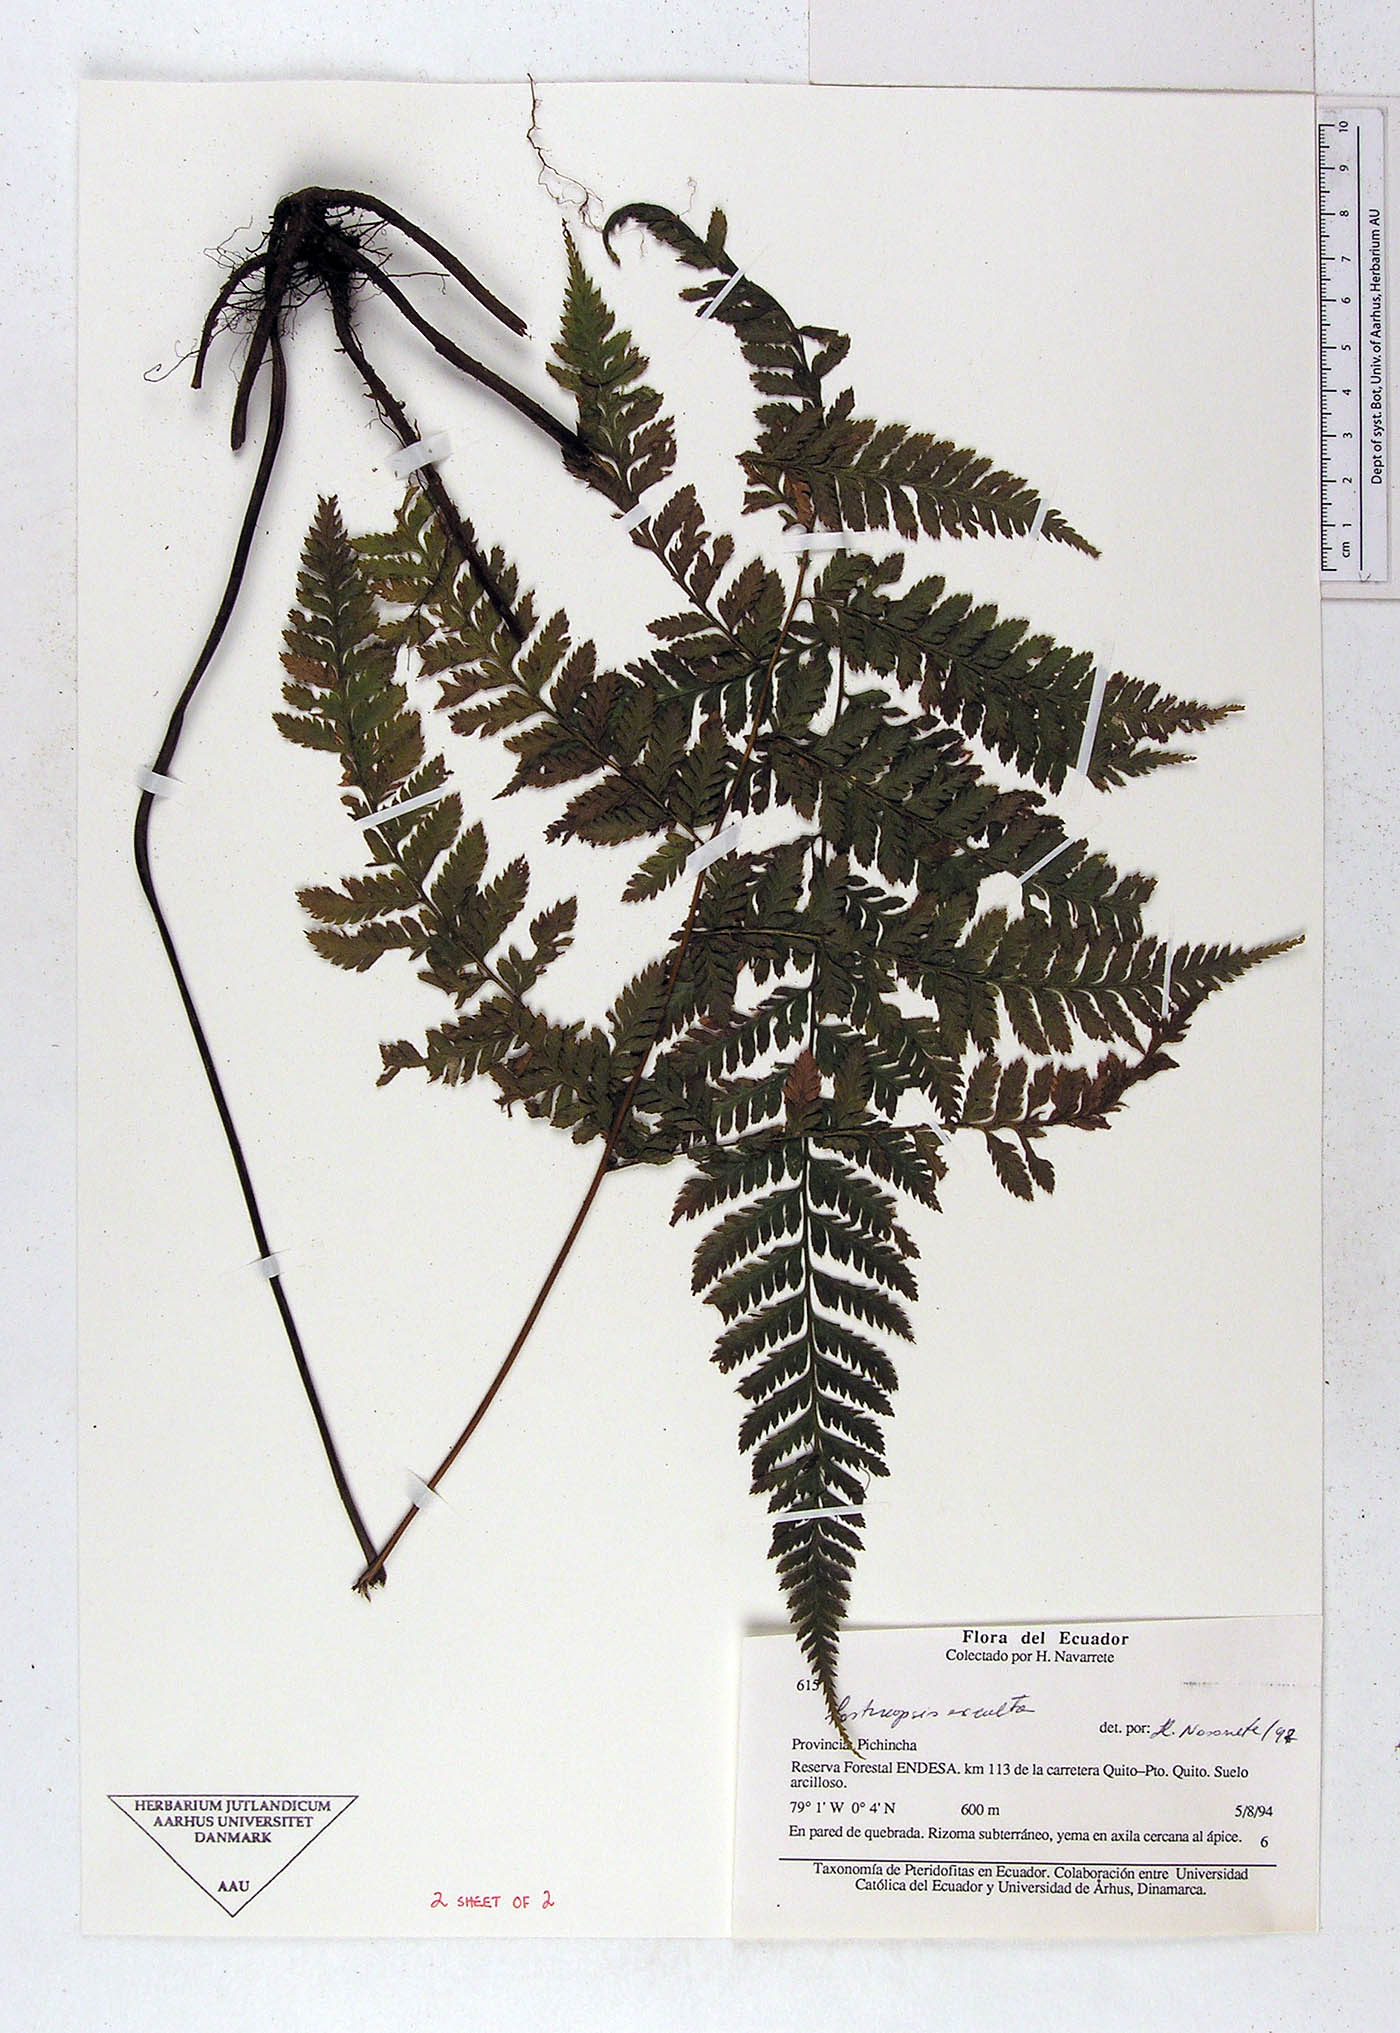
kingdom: Plantae
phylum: Tracheophyta
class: Polypodiopsida
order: Polypodiales
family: Dryopteridaceae
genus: Parapolystichum
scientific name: Parapolystichum excultum
